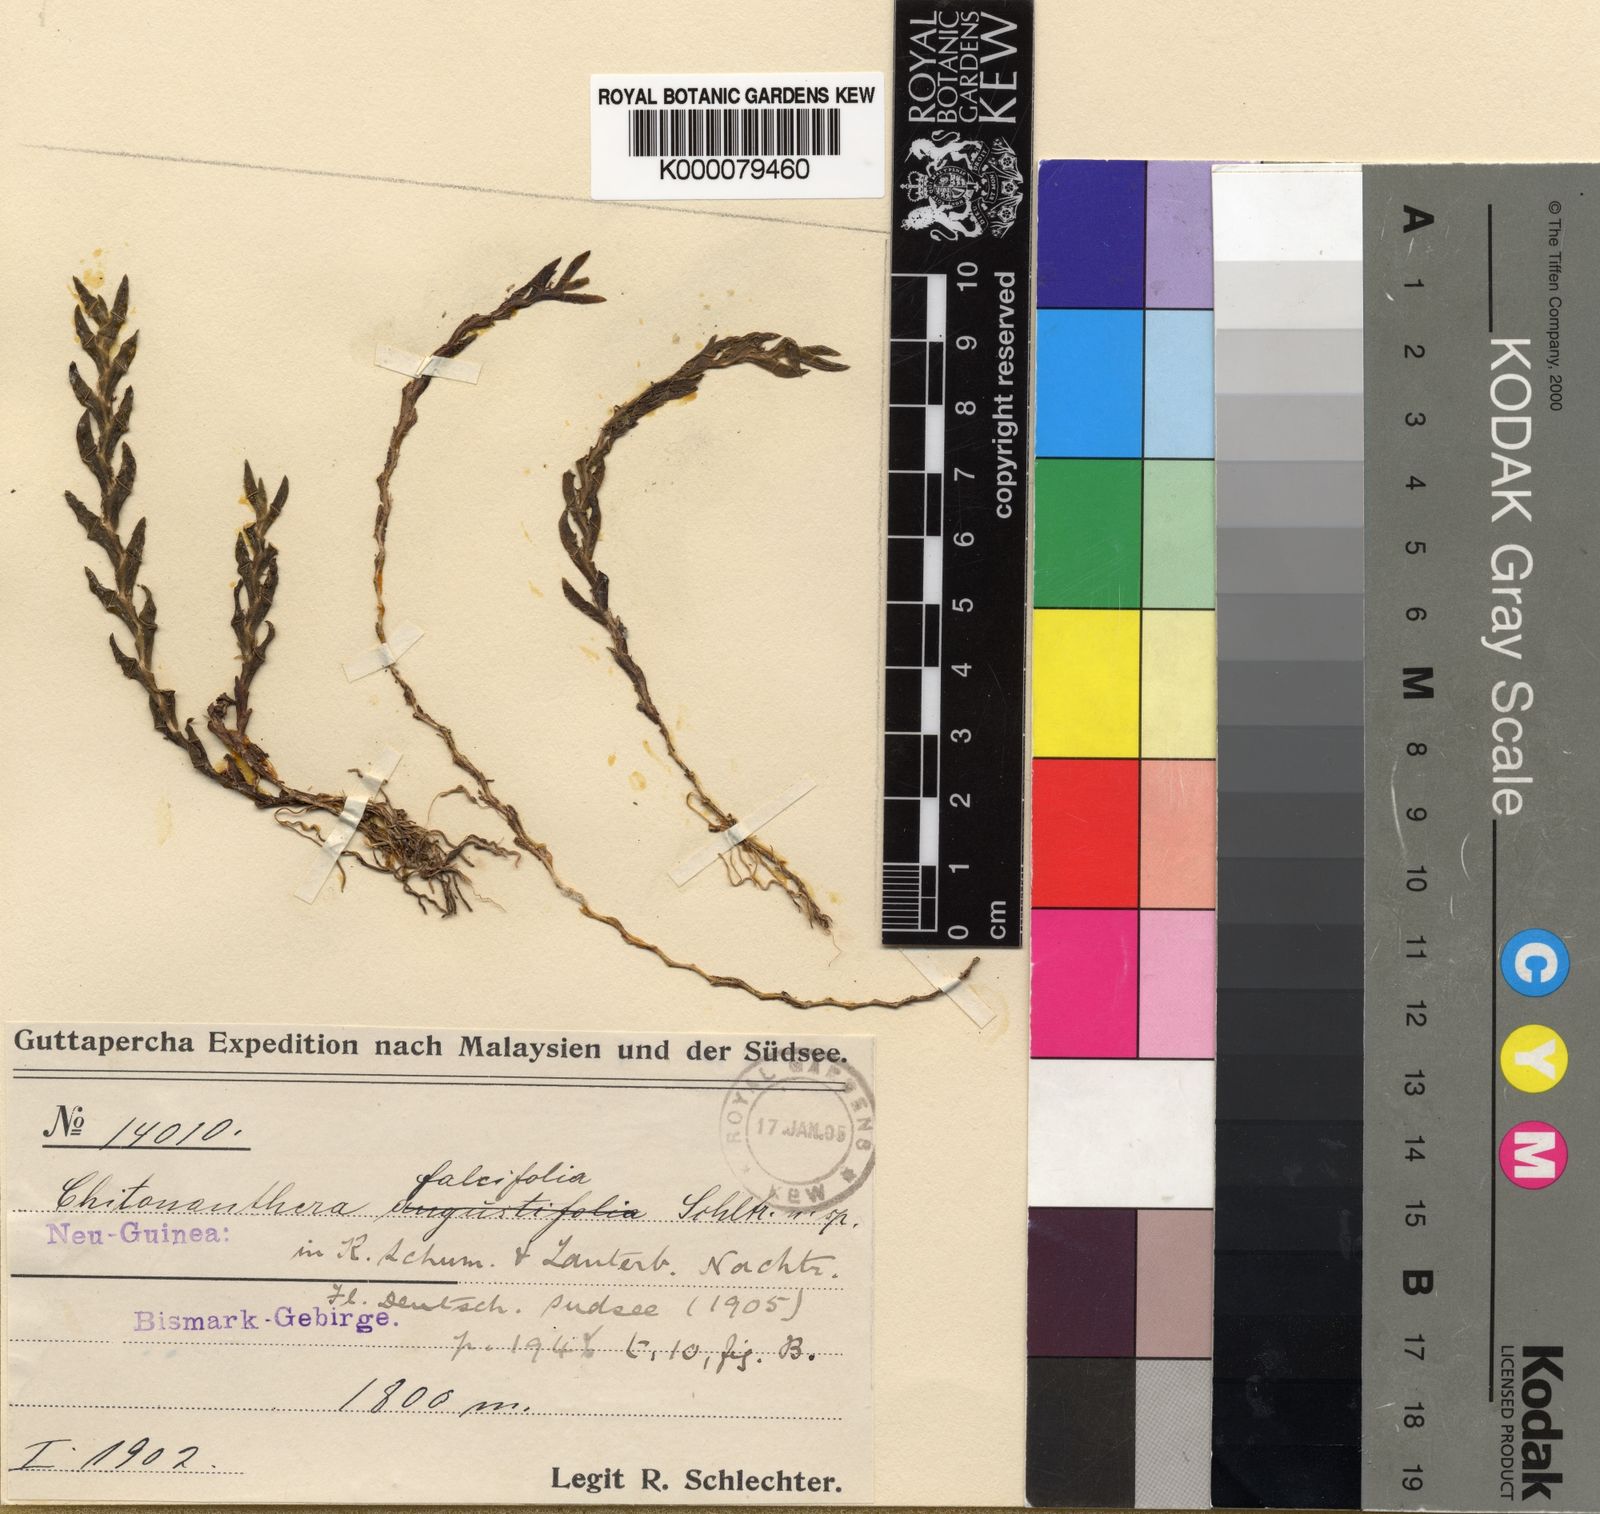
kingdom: Plantae
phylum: Tracheophyta
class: Liliopsida
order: Asparagales
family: Orchidaceae
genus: Octarrhena
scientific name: Octarrhena falcifolia
